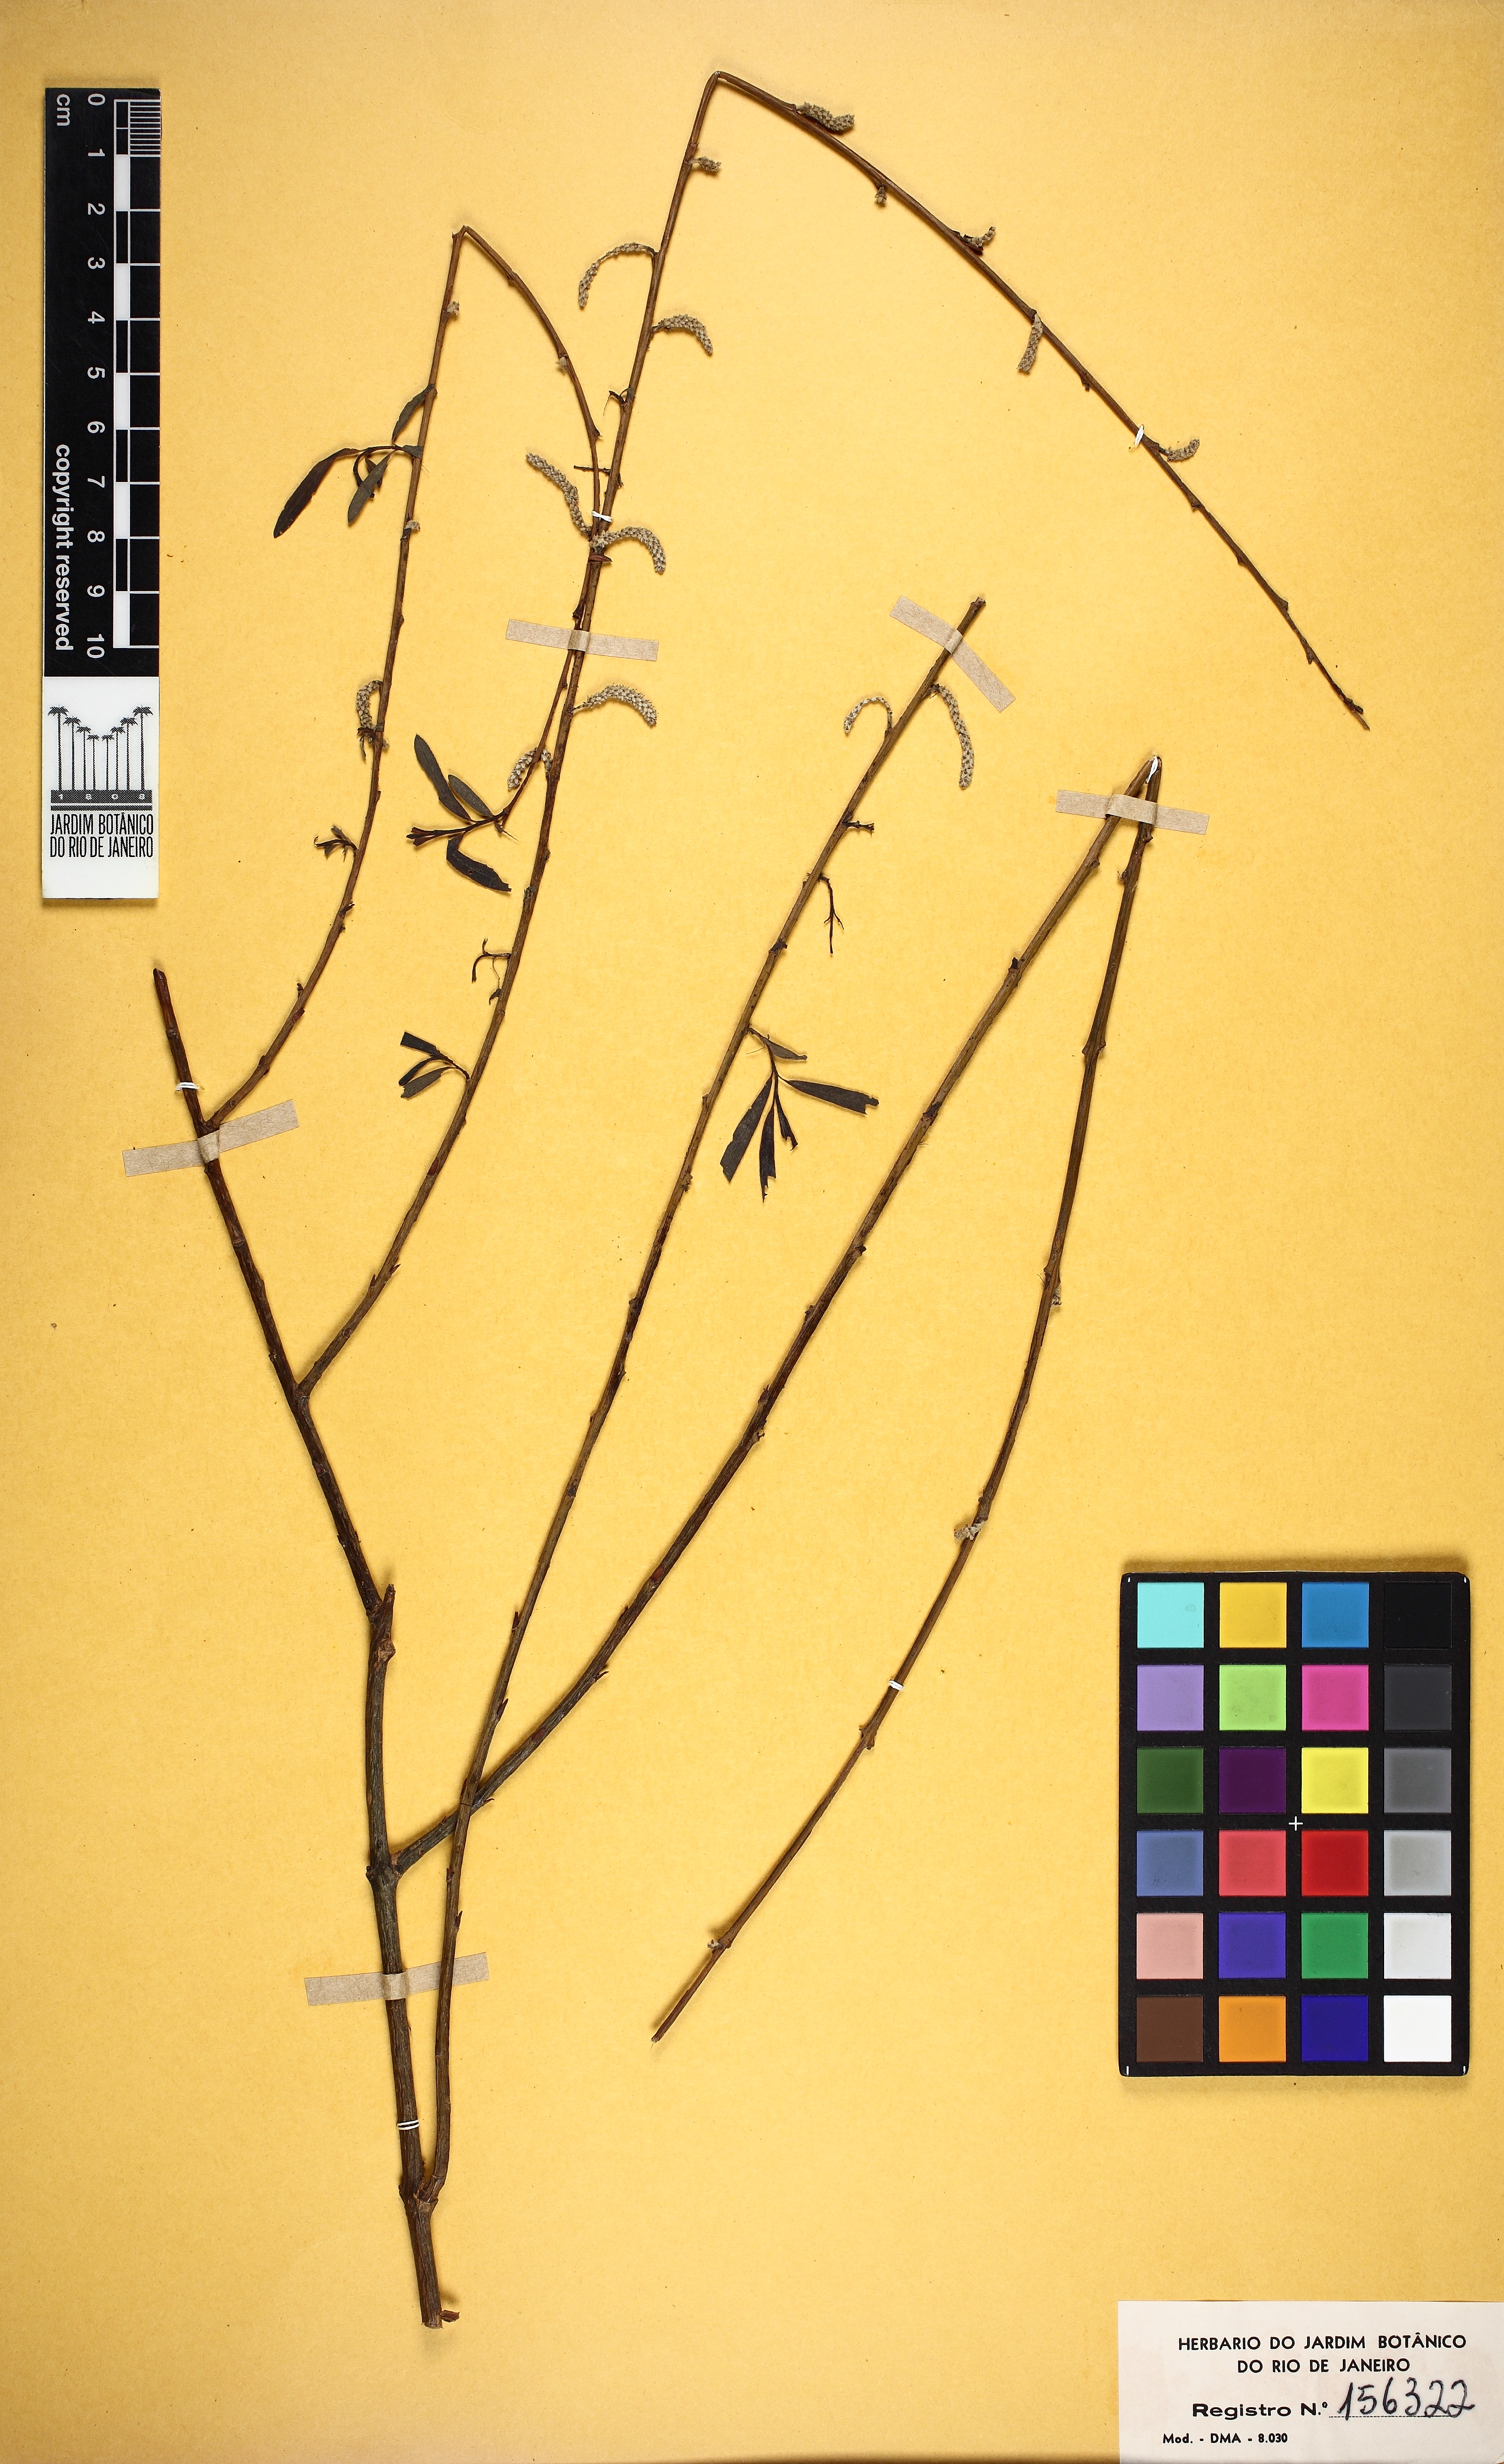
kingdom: Plantae
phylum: Tracheophyta
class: Magnoliopsida
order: Malpighiales
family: Salicaceae
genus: Salix
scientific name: Salix nigra
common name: Black willow
